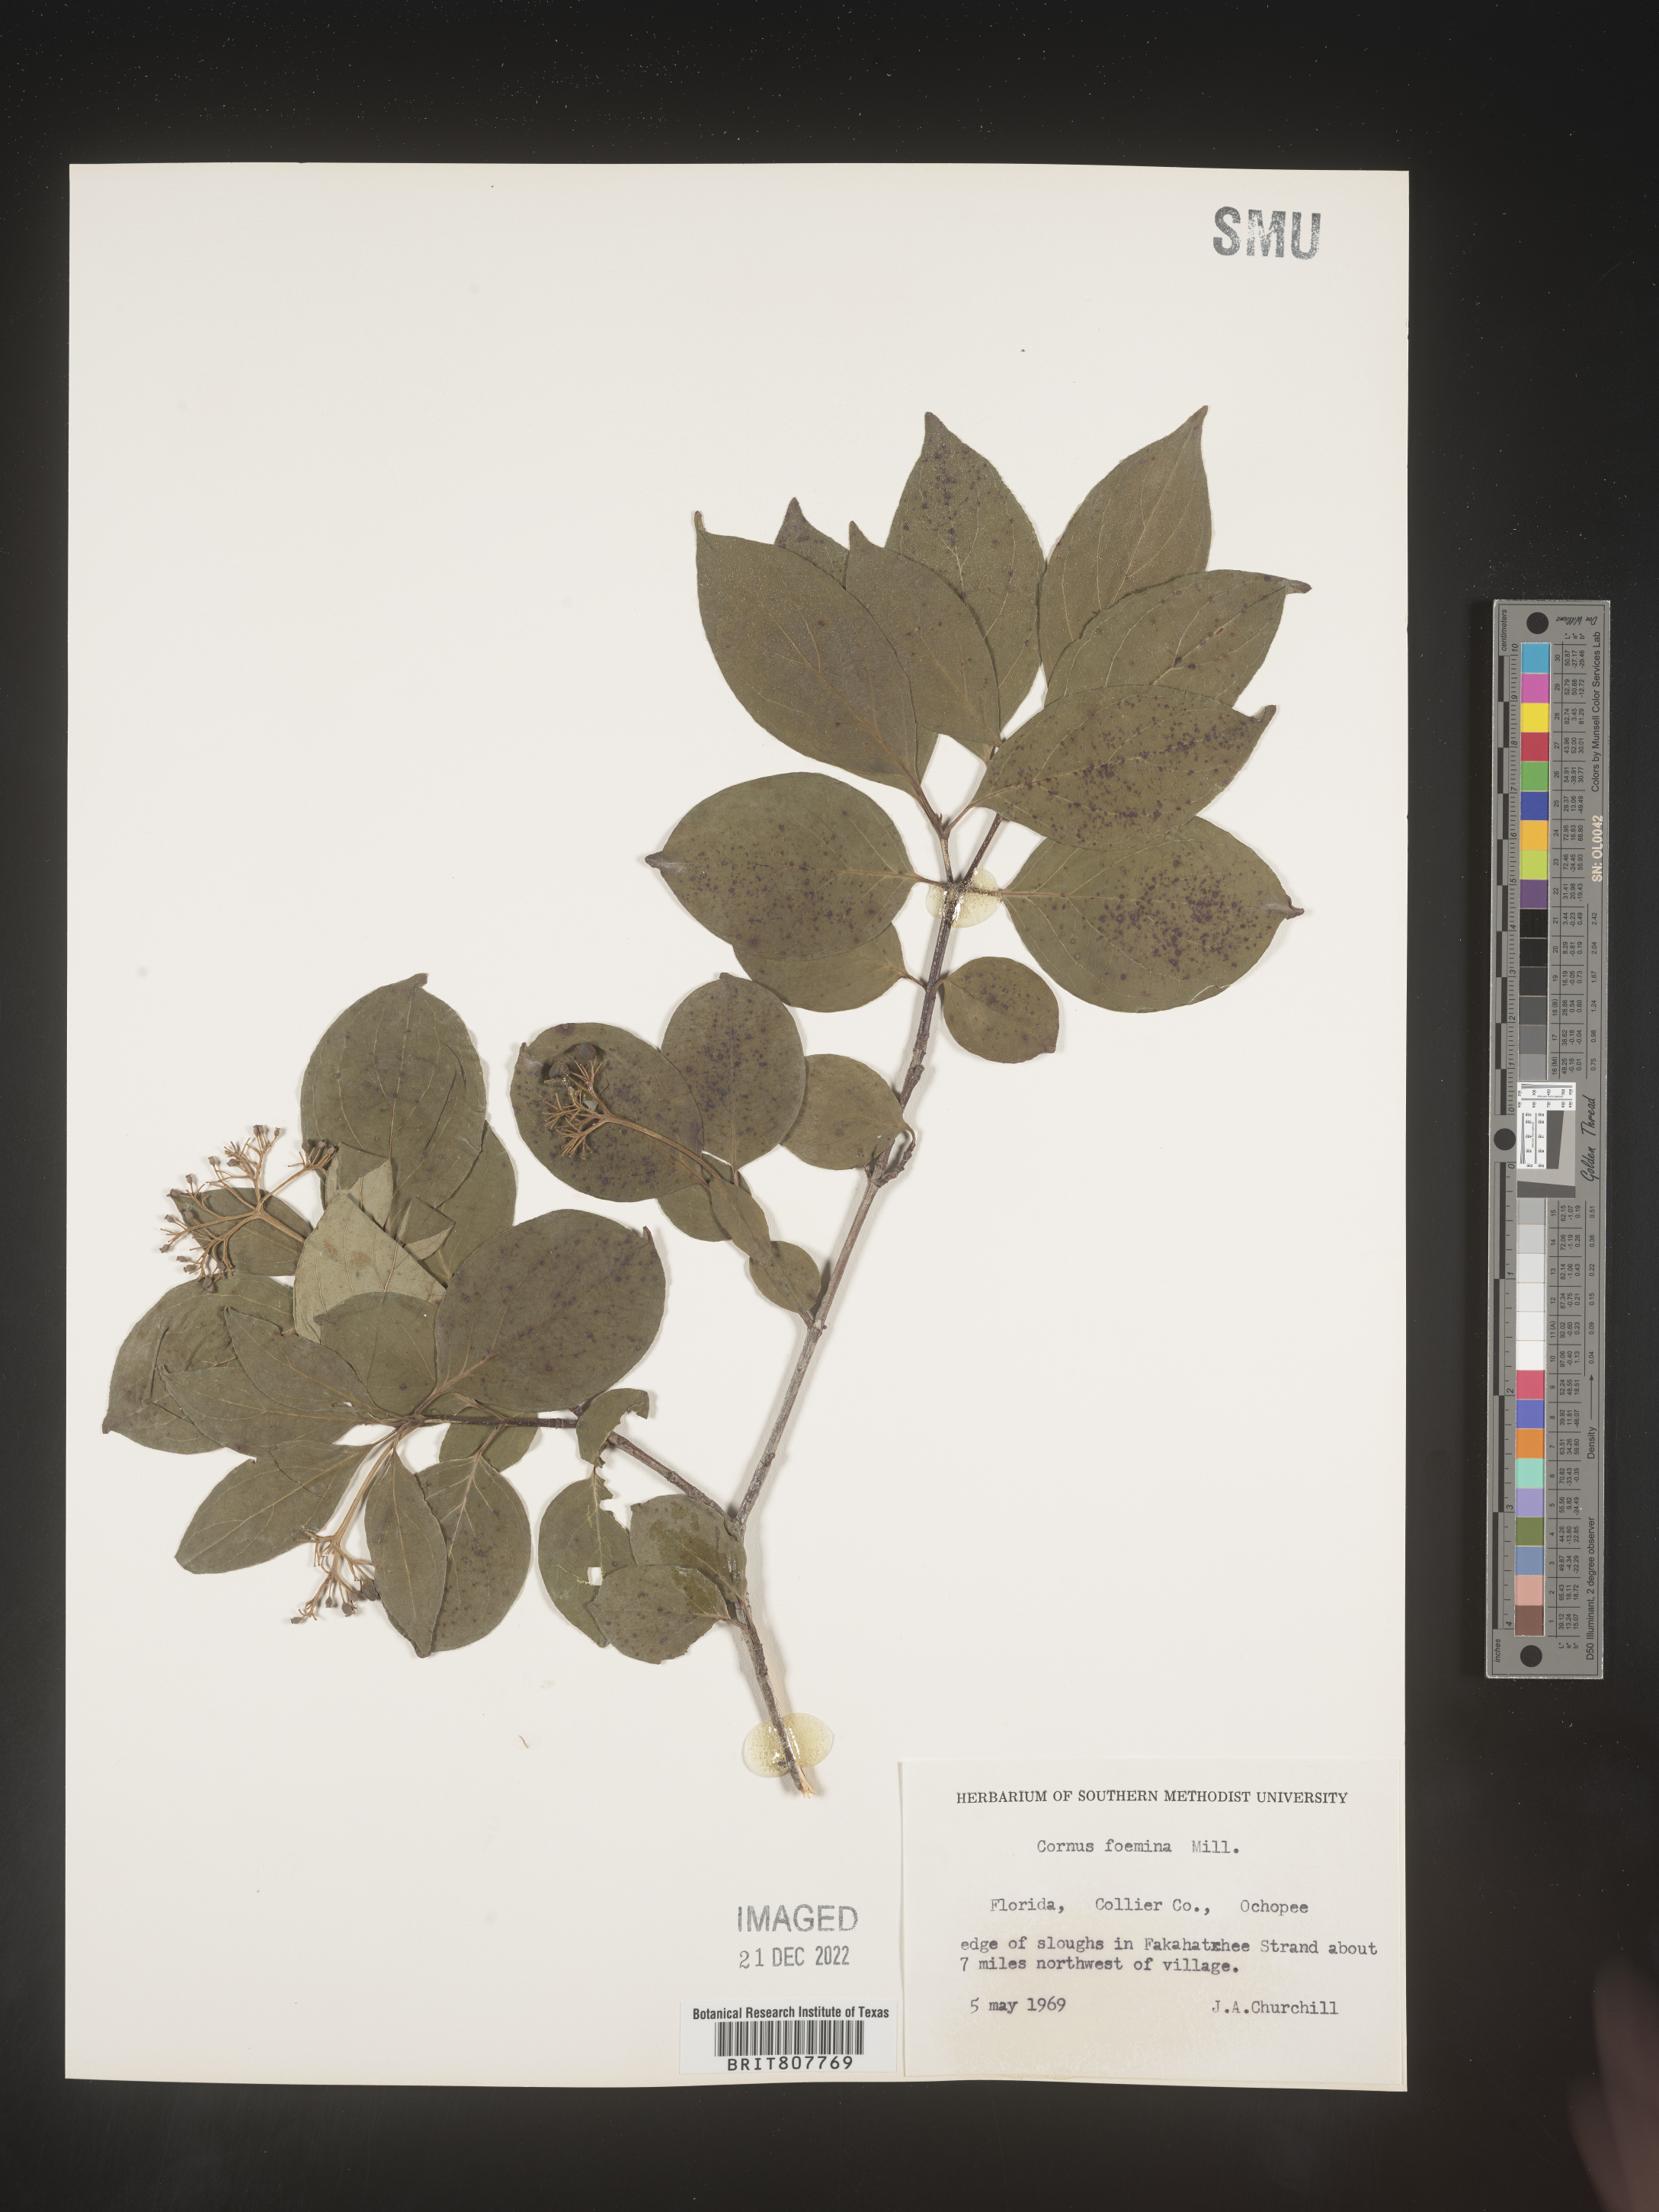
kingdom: Plantae
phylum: Tracheophyta
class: Magnoliopsida
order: Cornales
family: Cornaceae
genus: Cornus
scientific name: Cornus foemina
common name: Swamp dogwood
